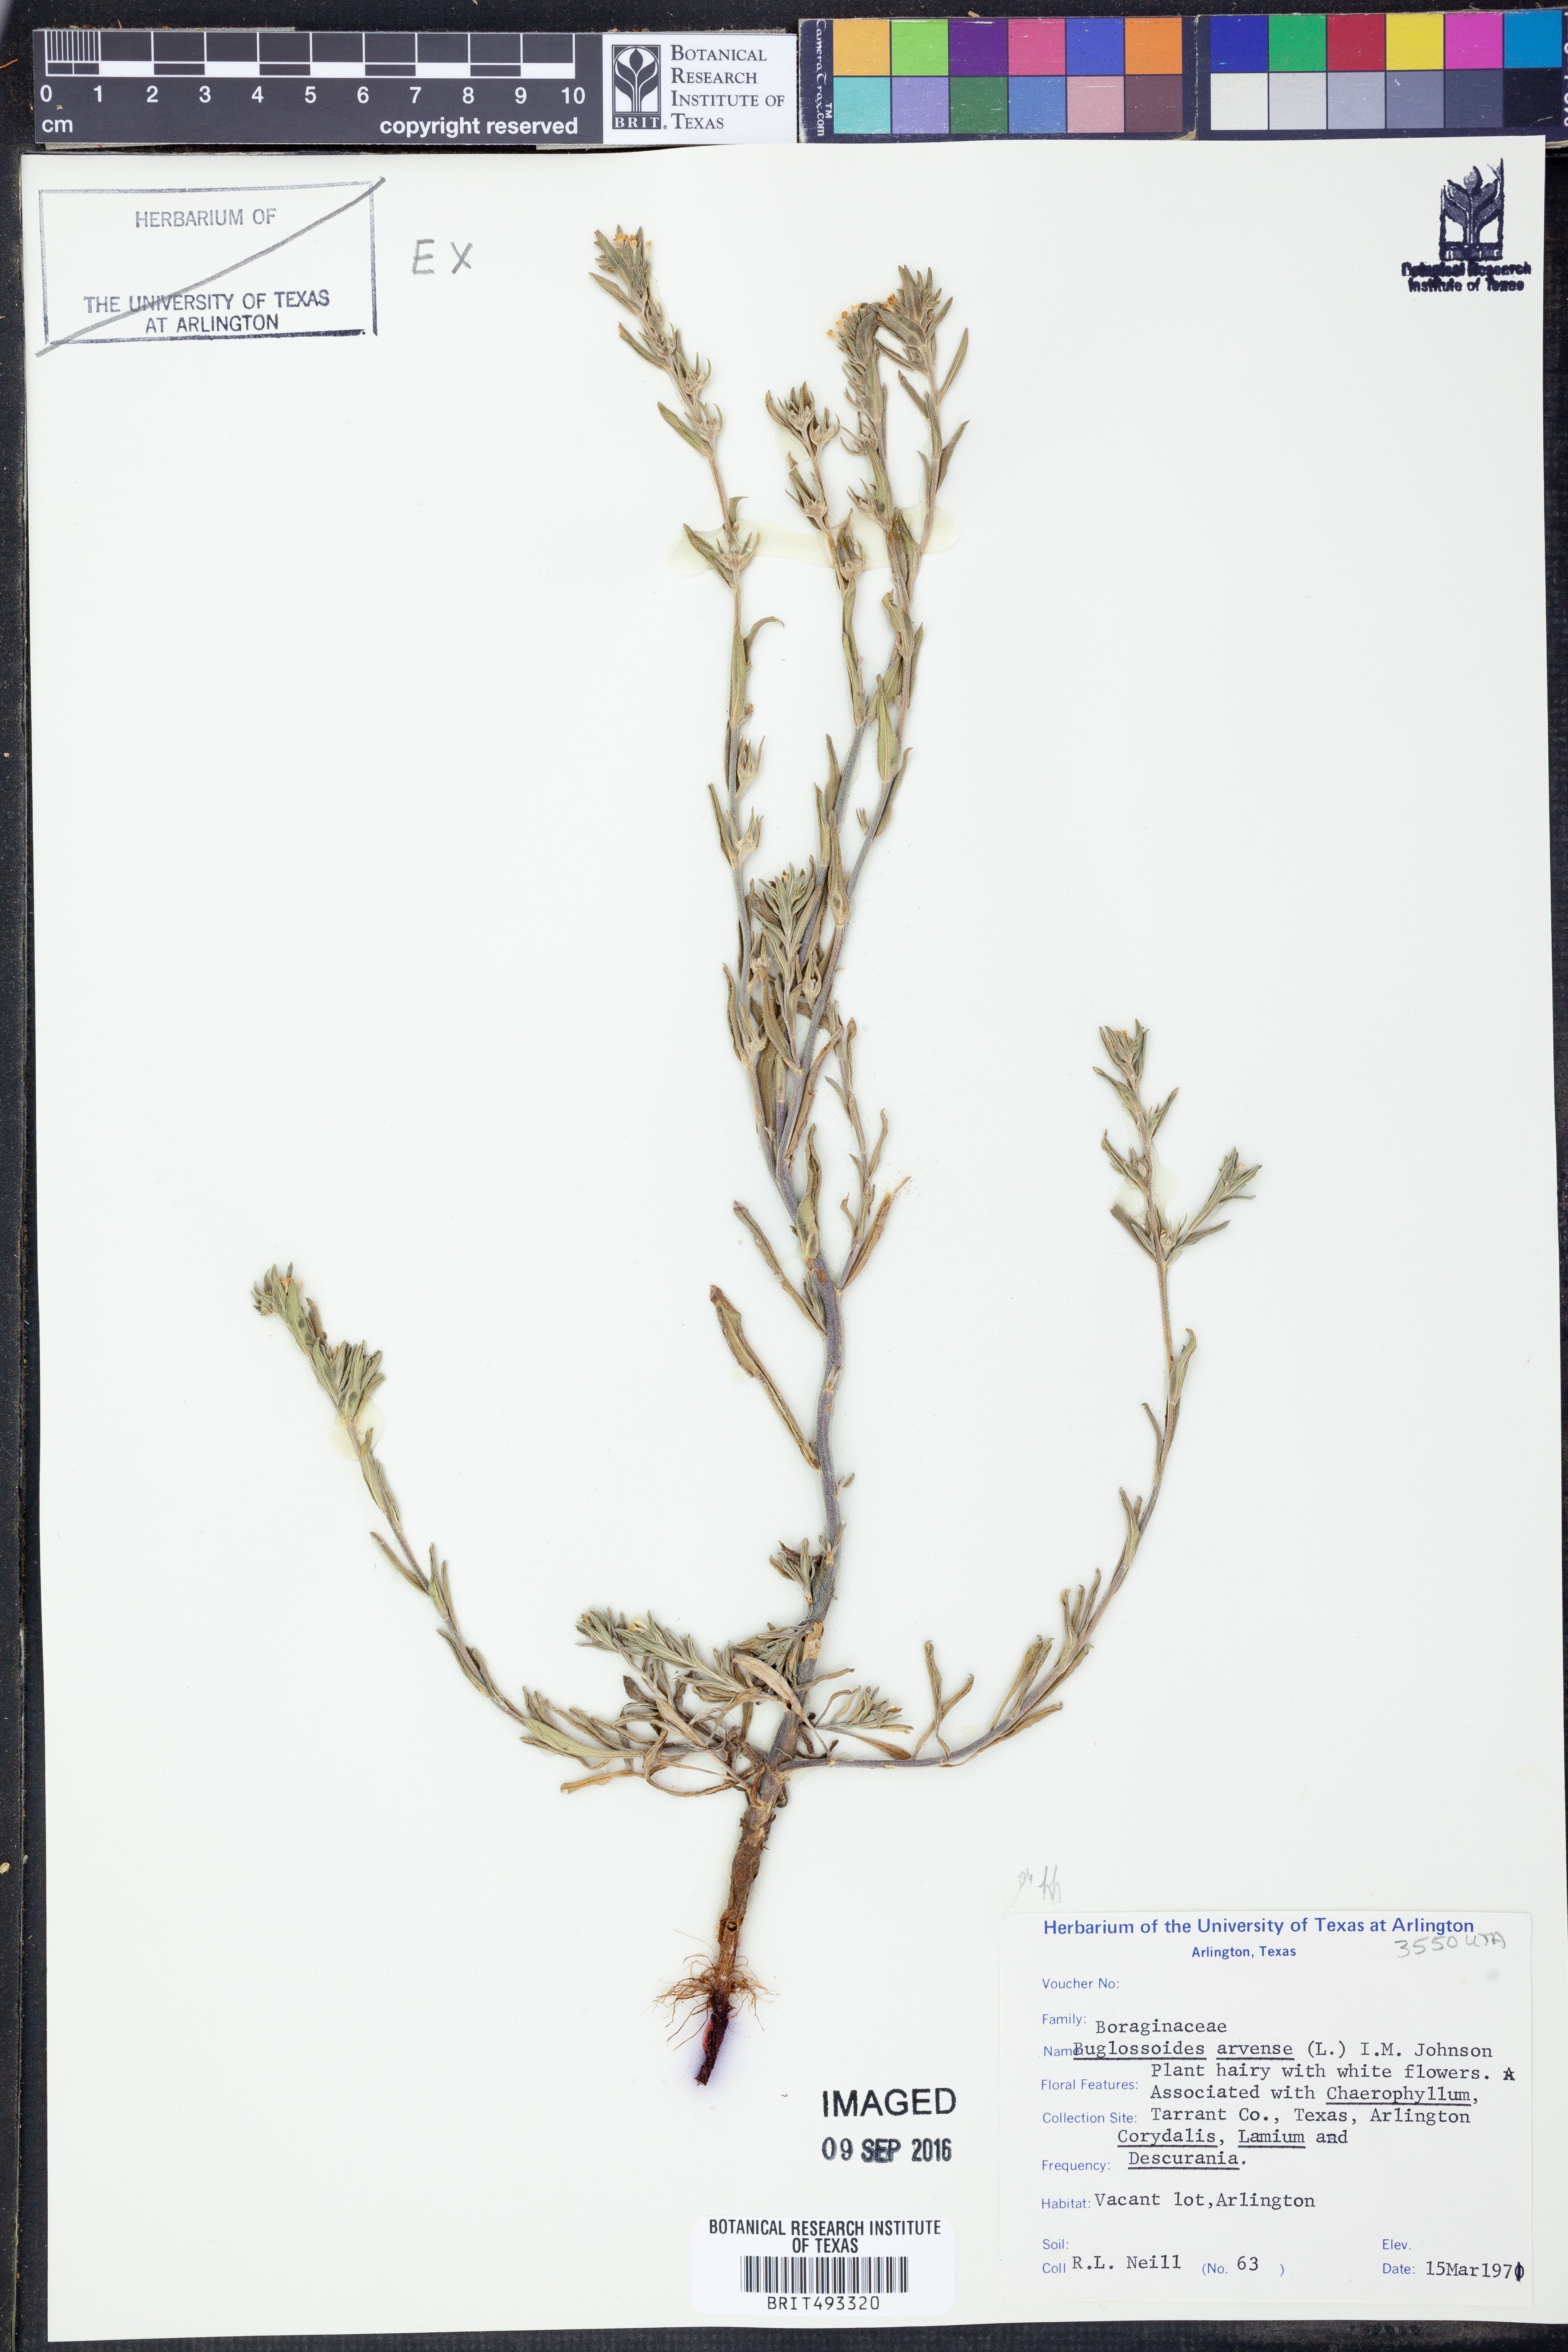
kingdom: Plantae
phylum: Tracheophyta
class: Magnoliopsida
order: Boraginales
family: Boraginaceae
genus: Buglossoides
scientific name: Buglossoides arvensis
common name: Corn gromwell
